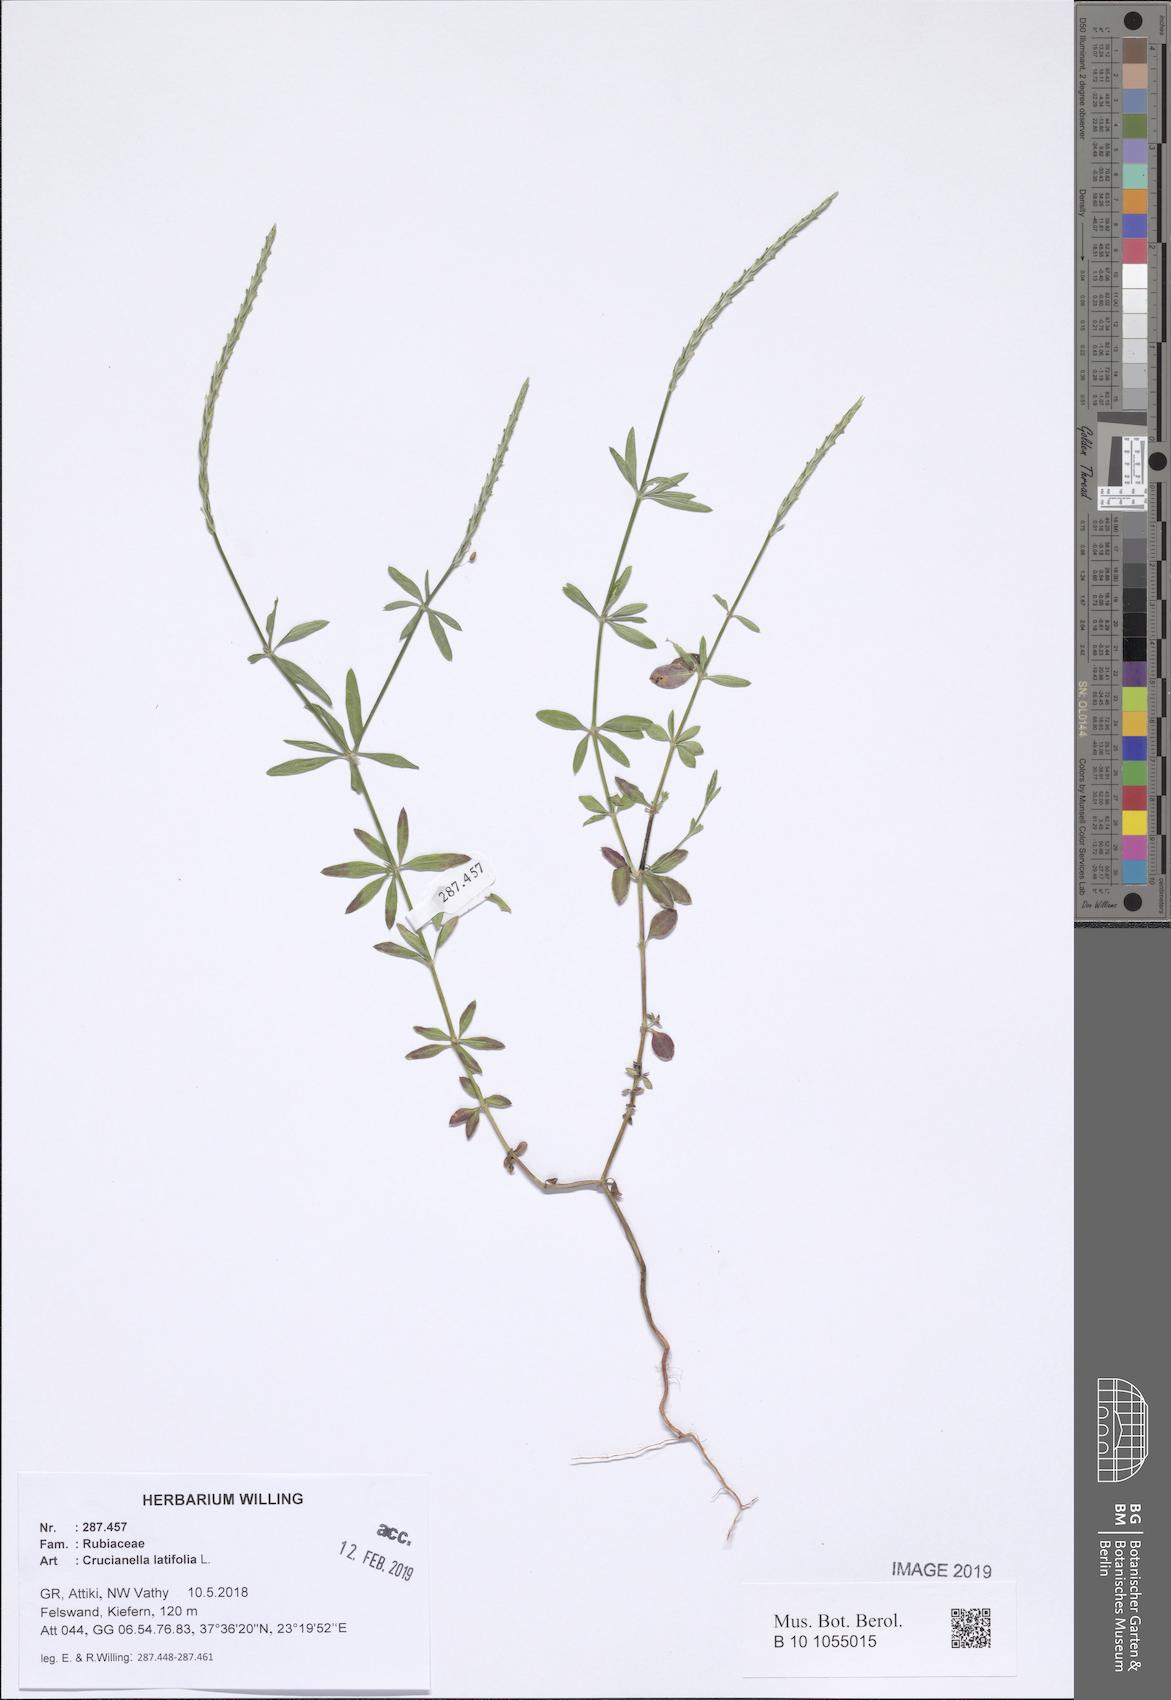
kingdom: Plantae
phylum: Tracheophyta
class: Magnoliopsida
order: Gentianales
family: Rubiaceae
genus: Crucianella
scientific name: Crucianella latifolia
